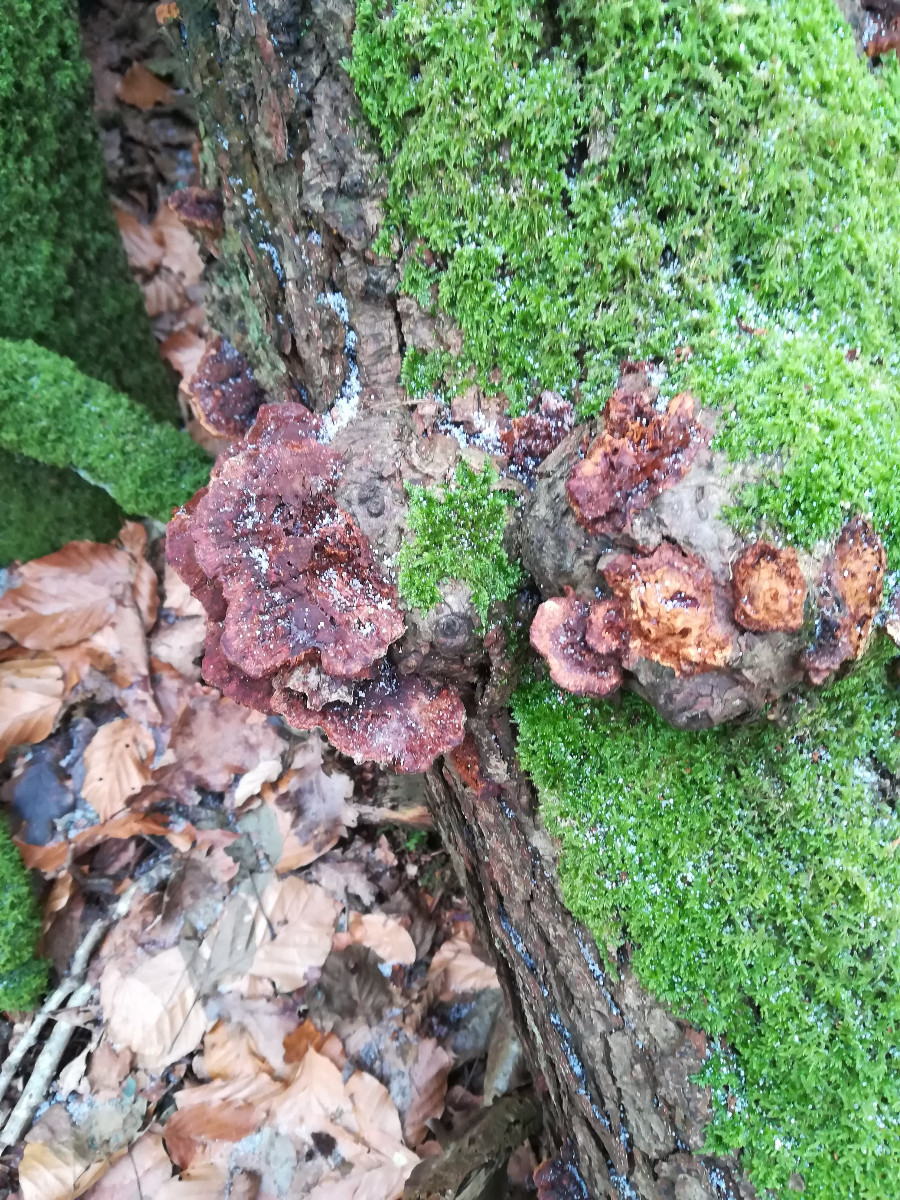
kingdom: Fungi
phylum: Basidiomycota
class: Agaricomycetes
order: Hymenochaetales
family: Hymenochaetaceae
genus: Xanthoporia
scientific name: Xanthoporia radiata
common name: elle-spejlporesvamp
